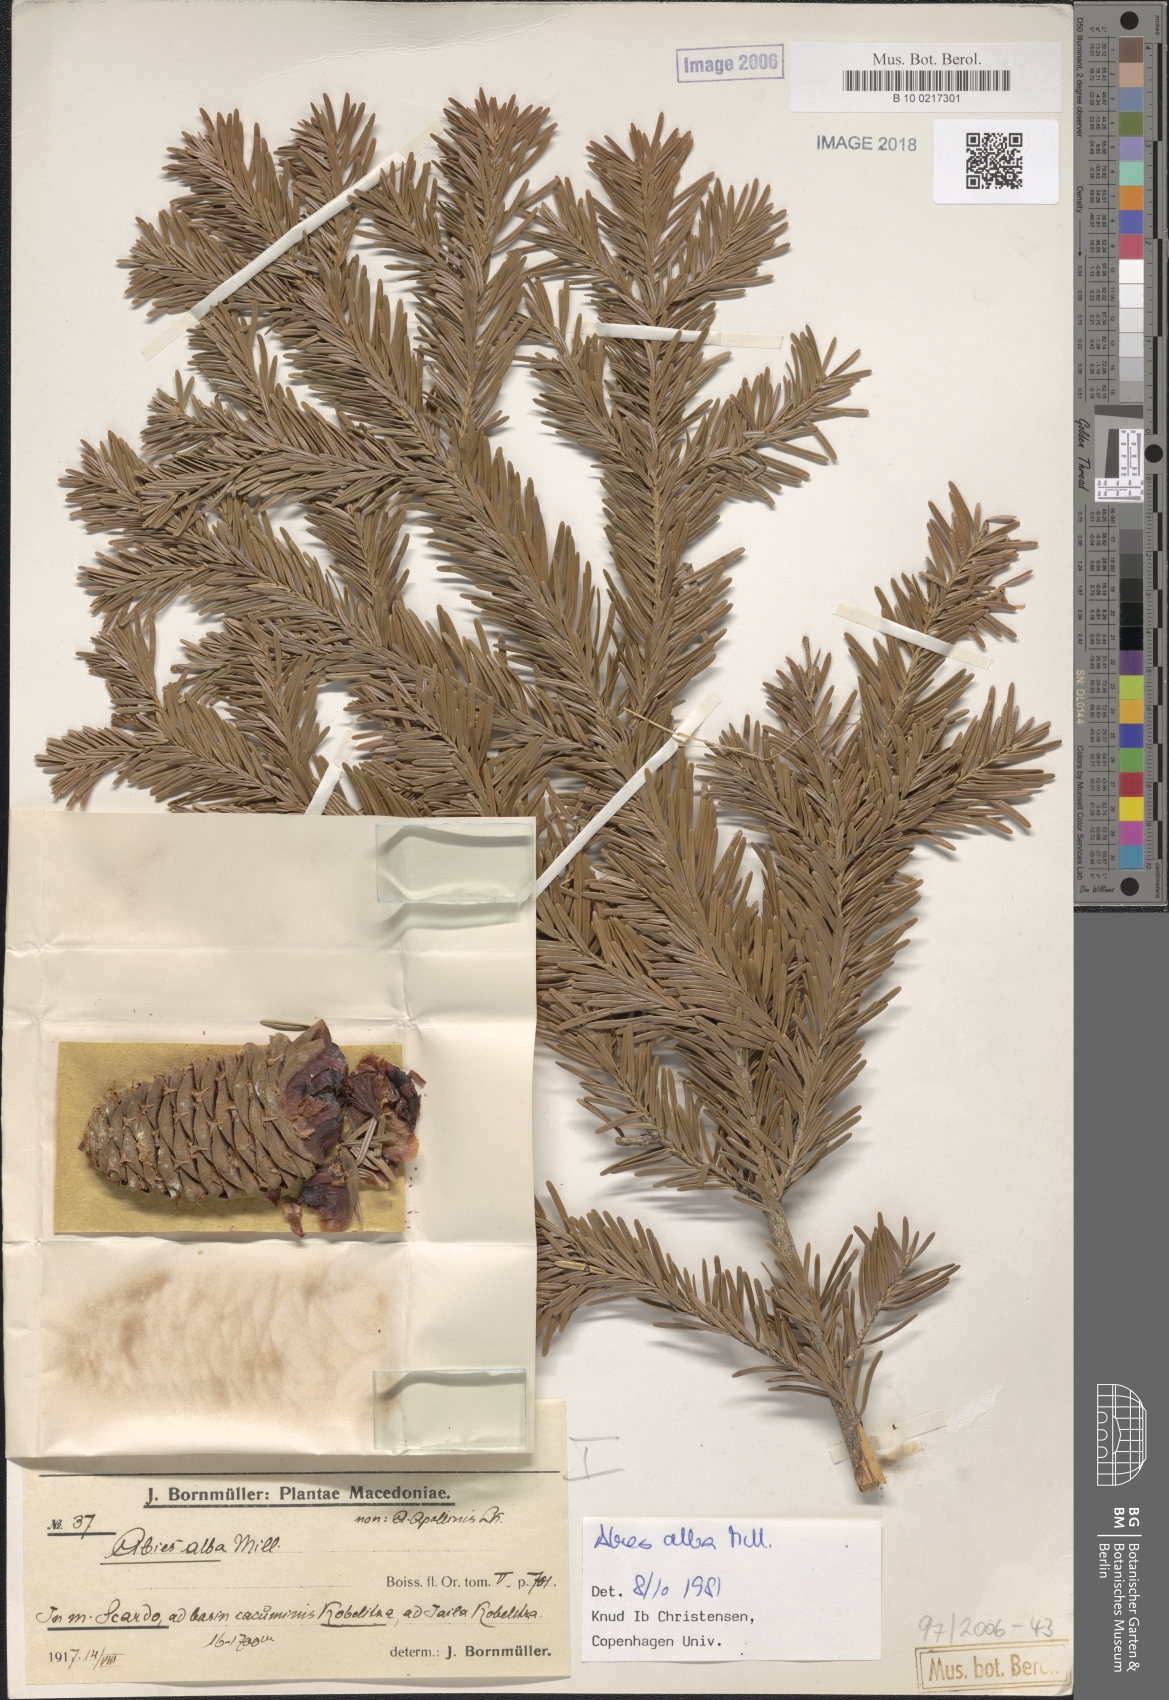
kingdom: Plantae
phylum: Tracheophyta
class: Pinopsida
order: Pinales
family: Pinaceae
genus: Abies
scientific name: Abies alba
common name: Silver fir
